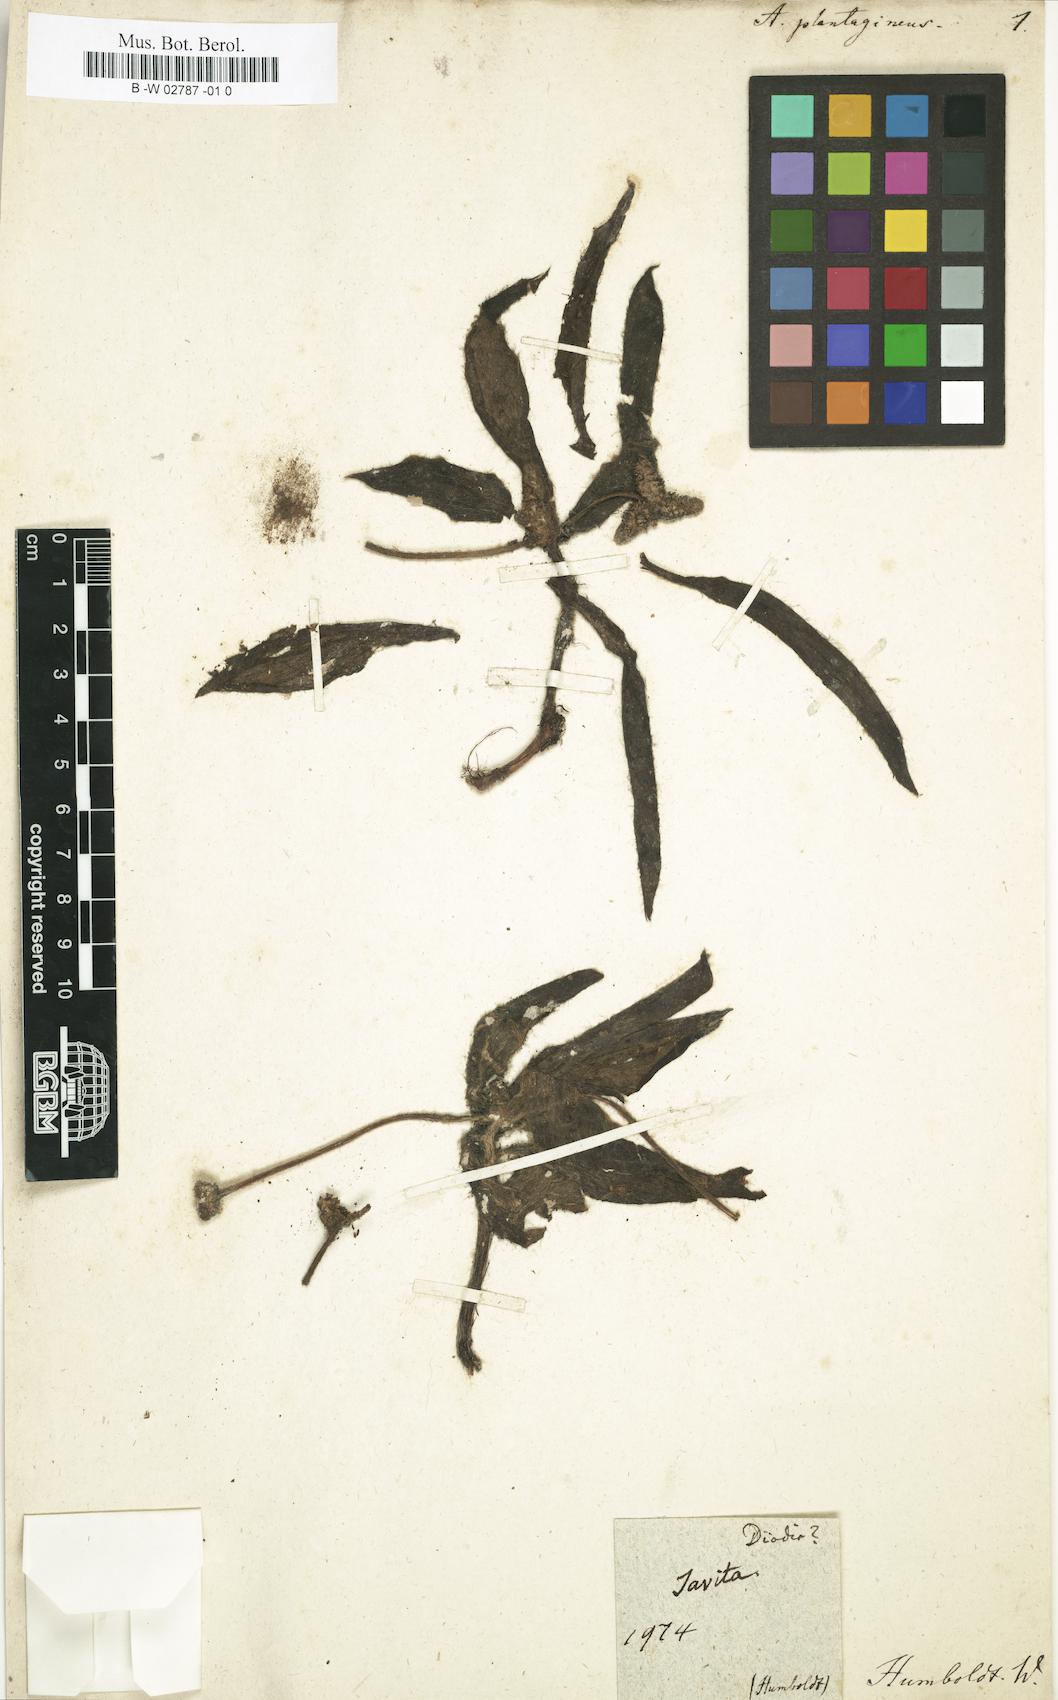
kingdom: Plantae
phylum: Tracheophyta
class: Magnoliopsida
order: Gentianales
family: Rubiaceae
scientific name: Rubiaceae
